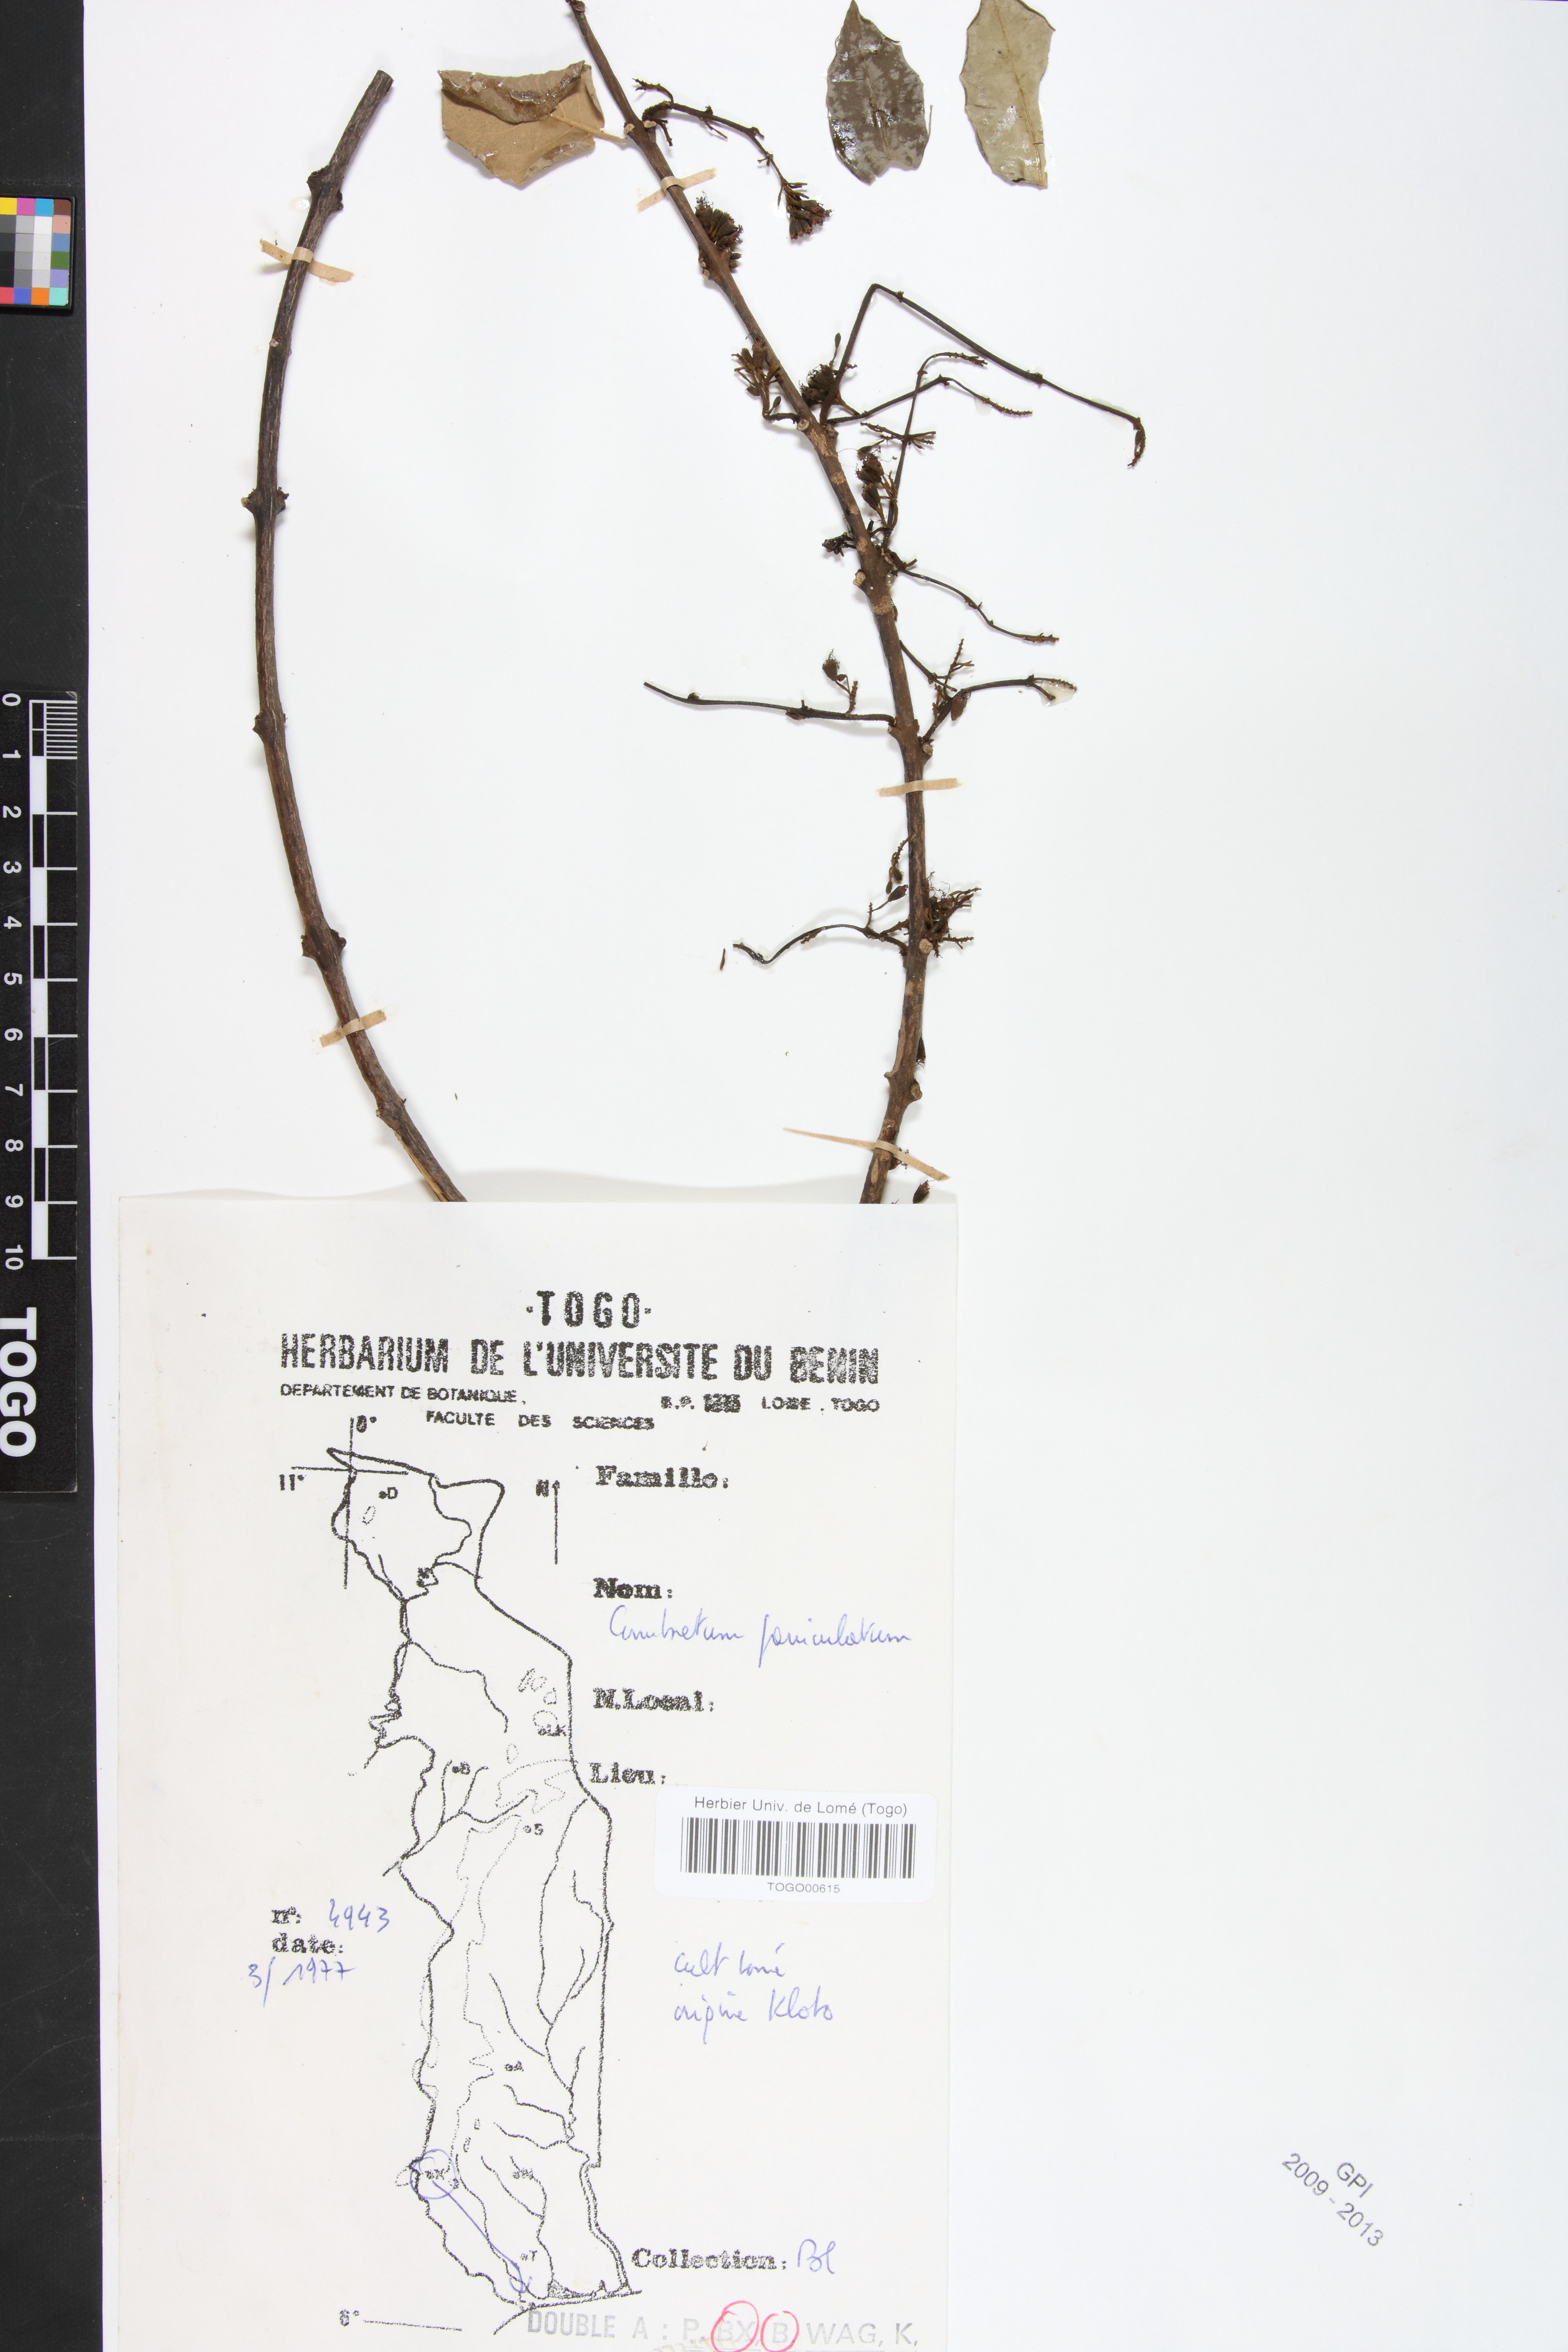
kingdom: Plantae
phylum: Tracheophyta
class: Magnoliopsida
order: Myrtales
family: Combretaceae
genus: Combretum
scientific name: Combretum paniculatum
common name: Fire vine
